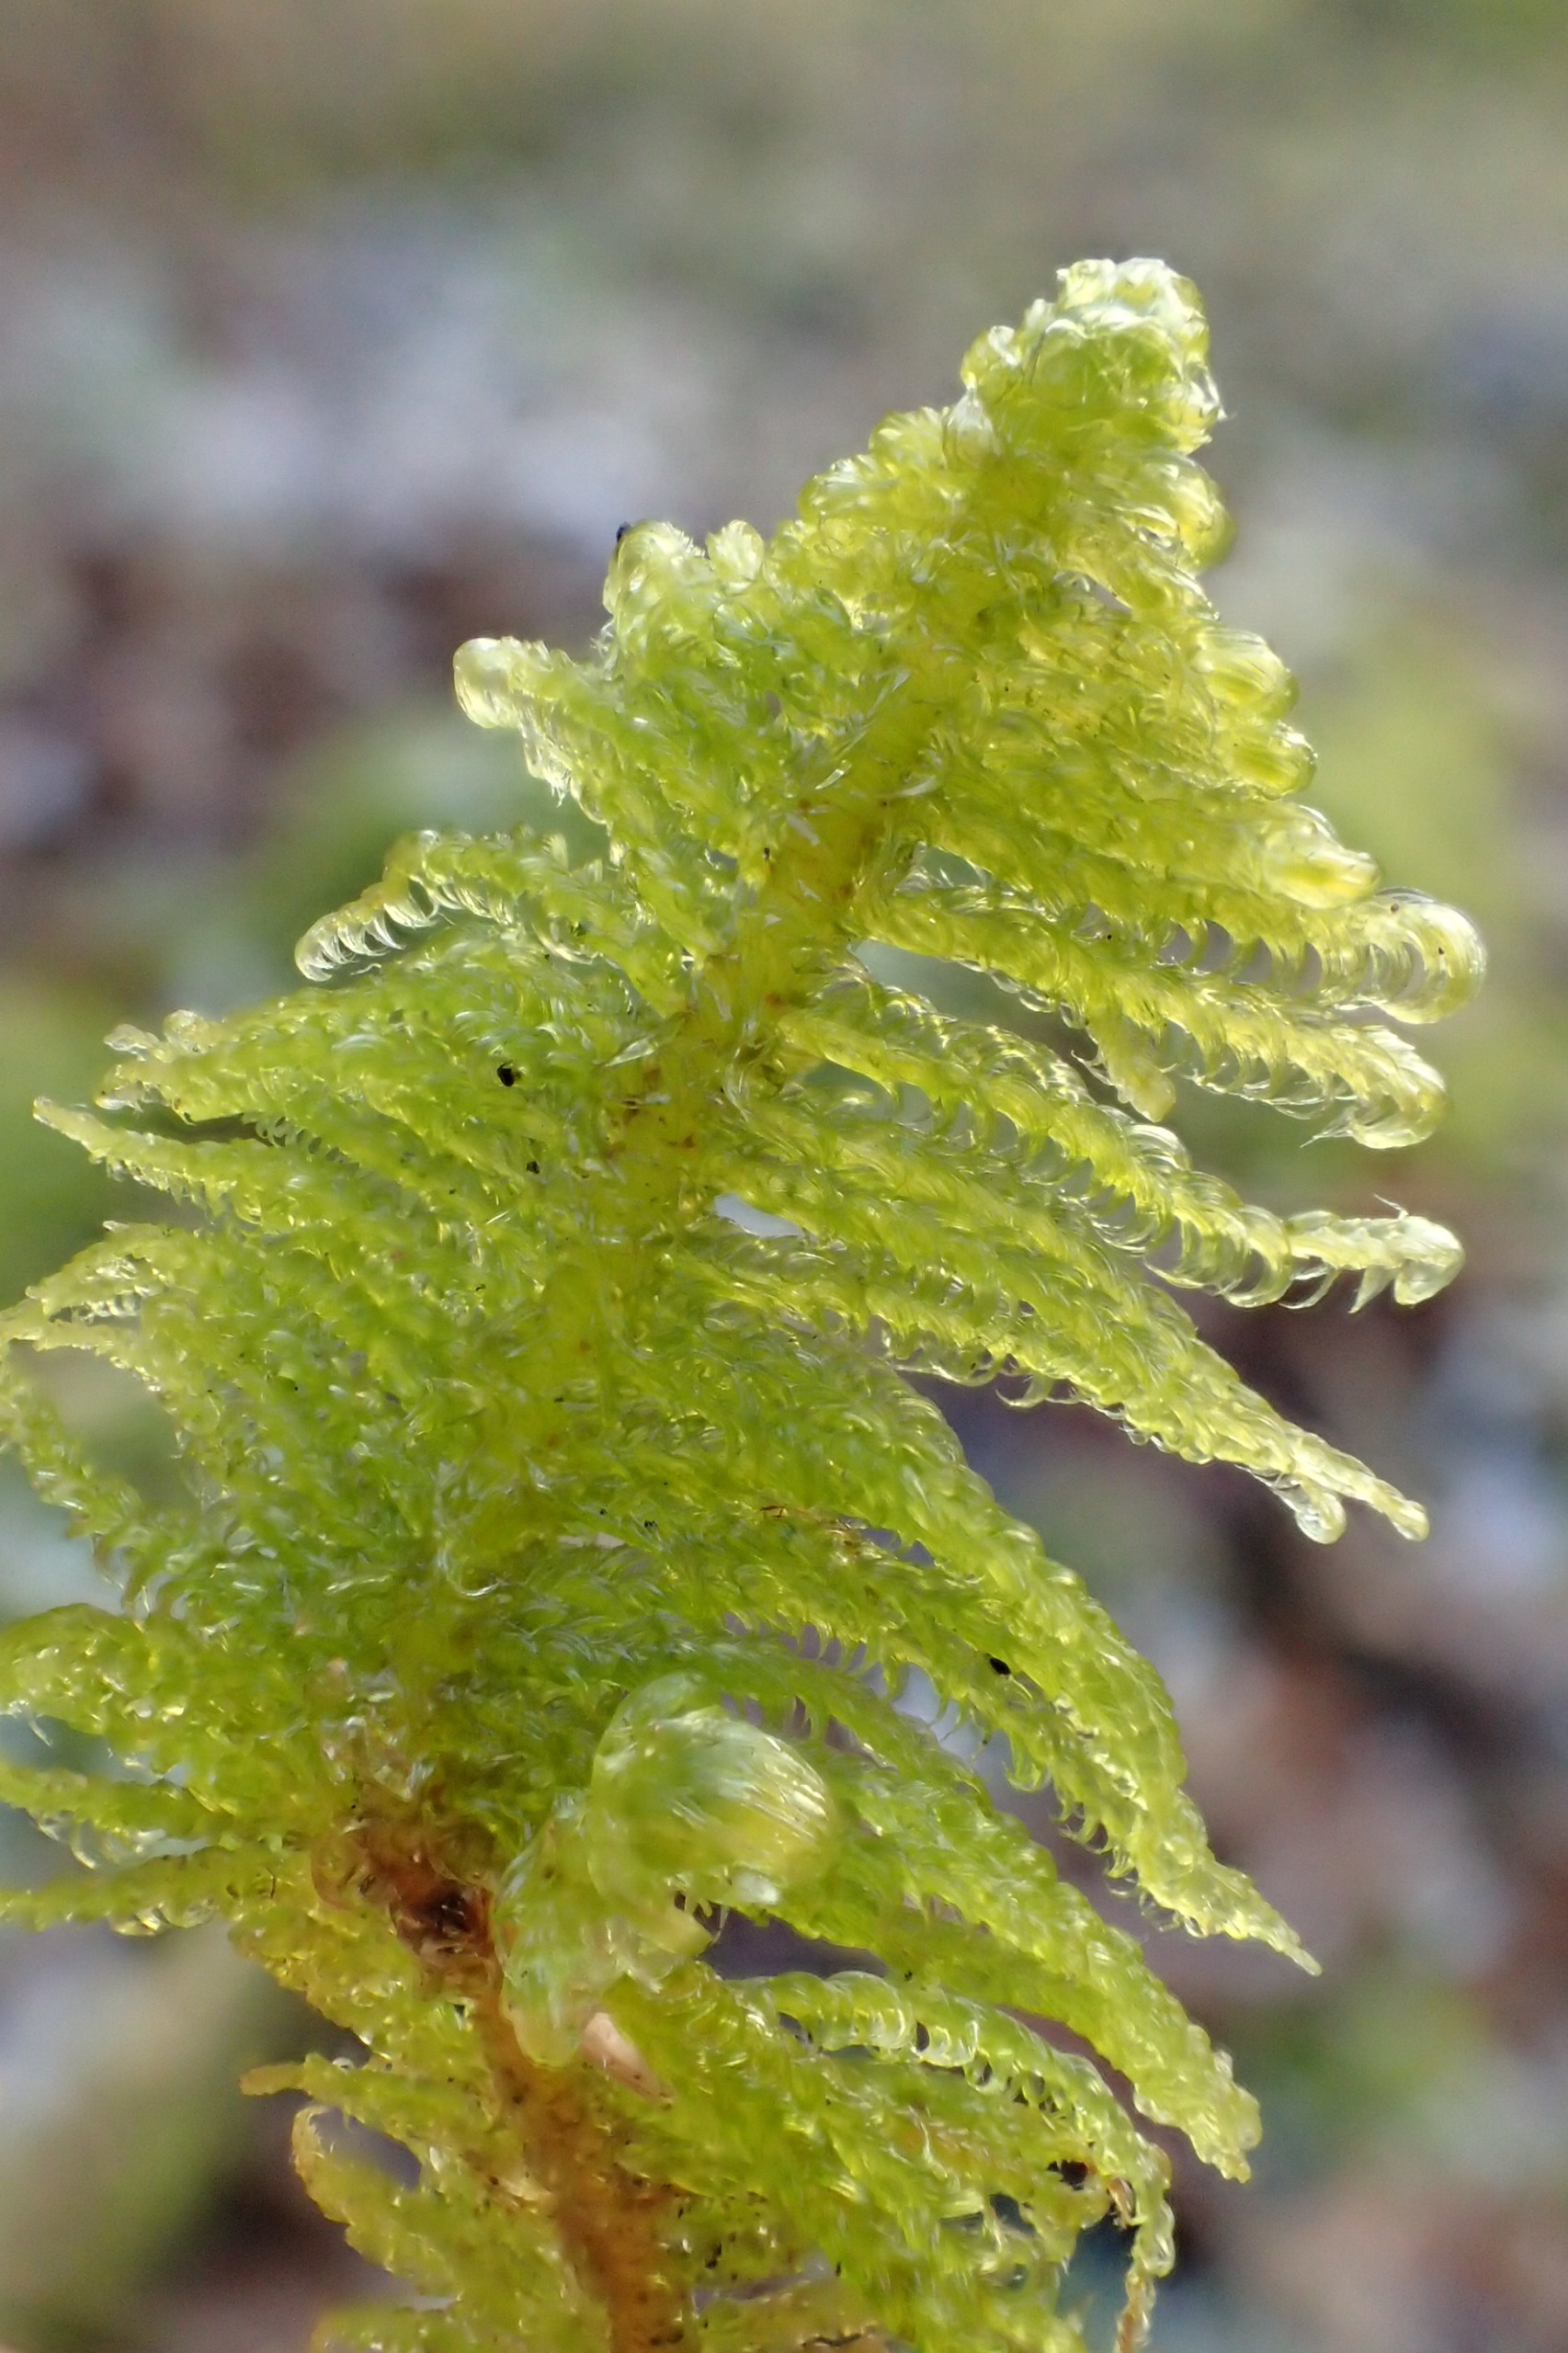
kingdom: Plantae
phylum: Bryophyta
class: Bryopsida
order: Hypnales
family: Pylaisiaceae
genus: Ptilium
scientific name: Ptilium crista-castrensis
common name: Fjer-kammos
